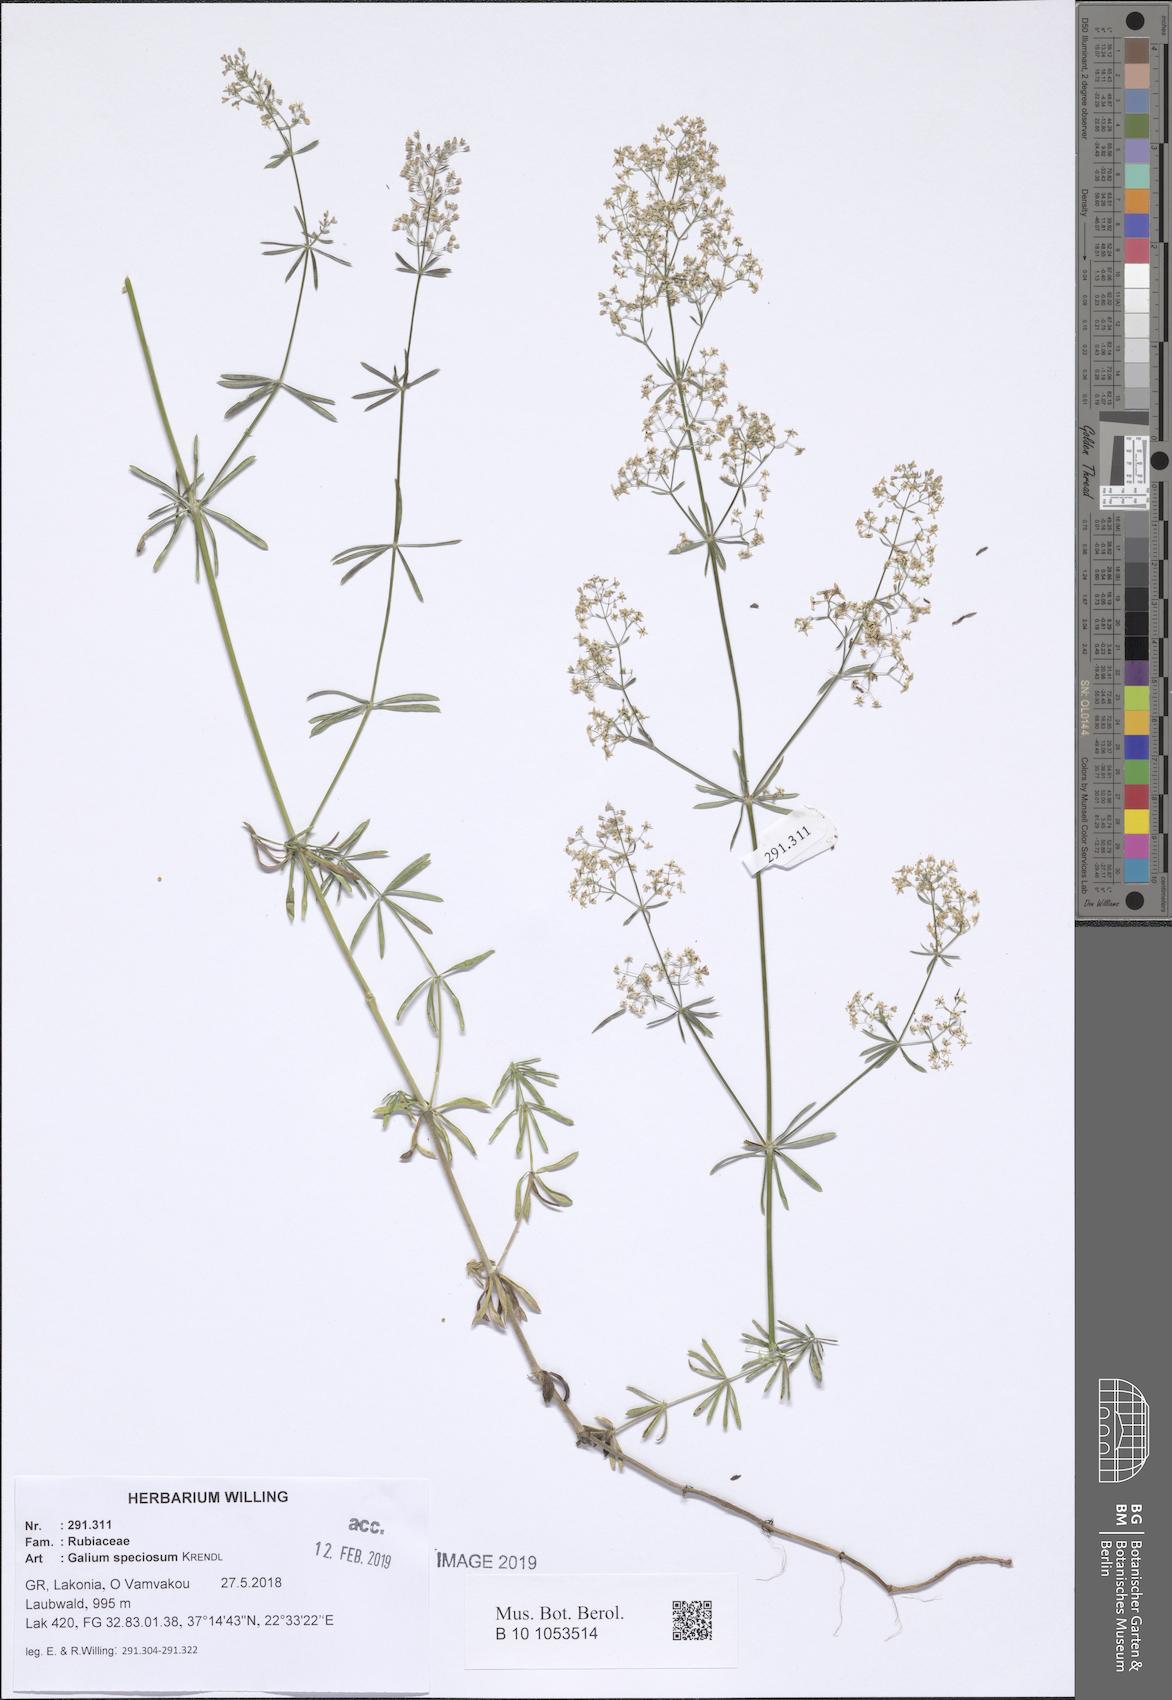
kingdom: Plantae
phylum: Tracheophyta
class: Magnoliopsida
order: Gentianales
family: Rubiaceae
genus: Galium
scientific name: Galium speciosum
